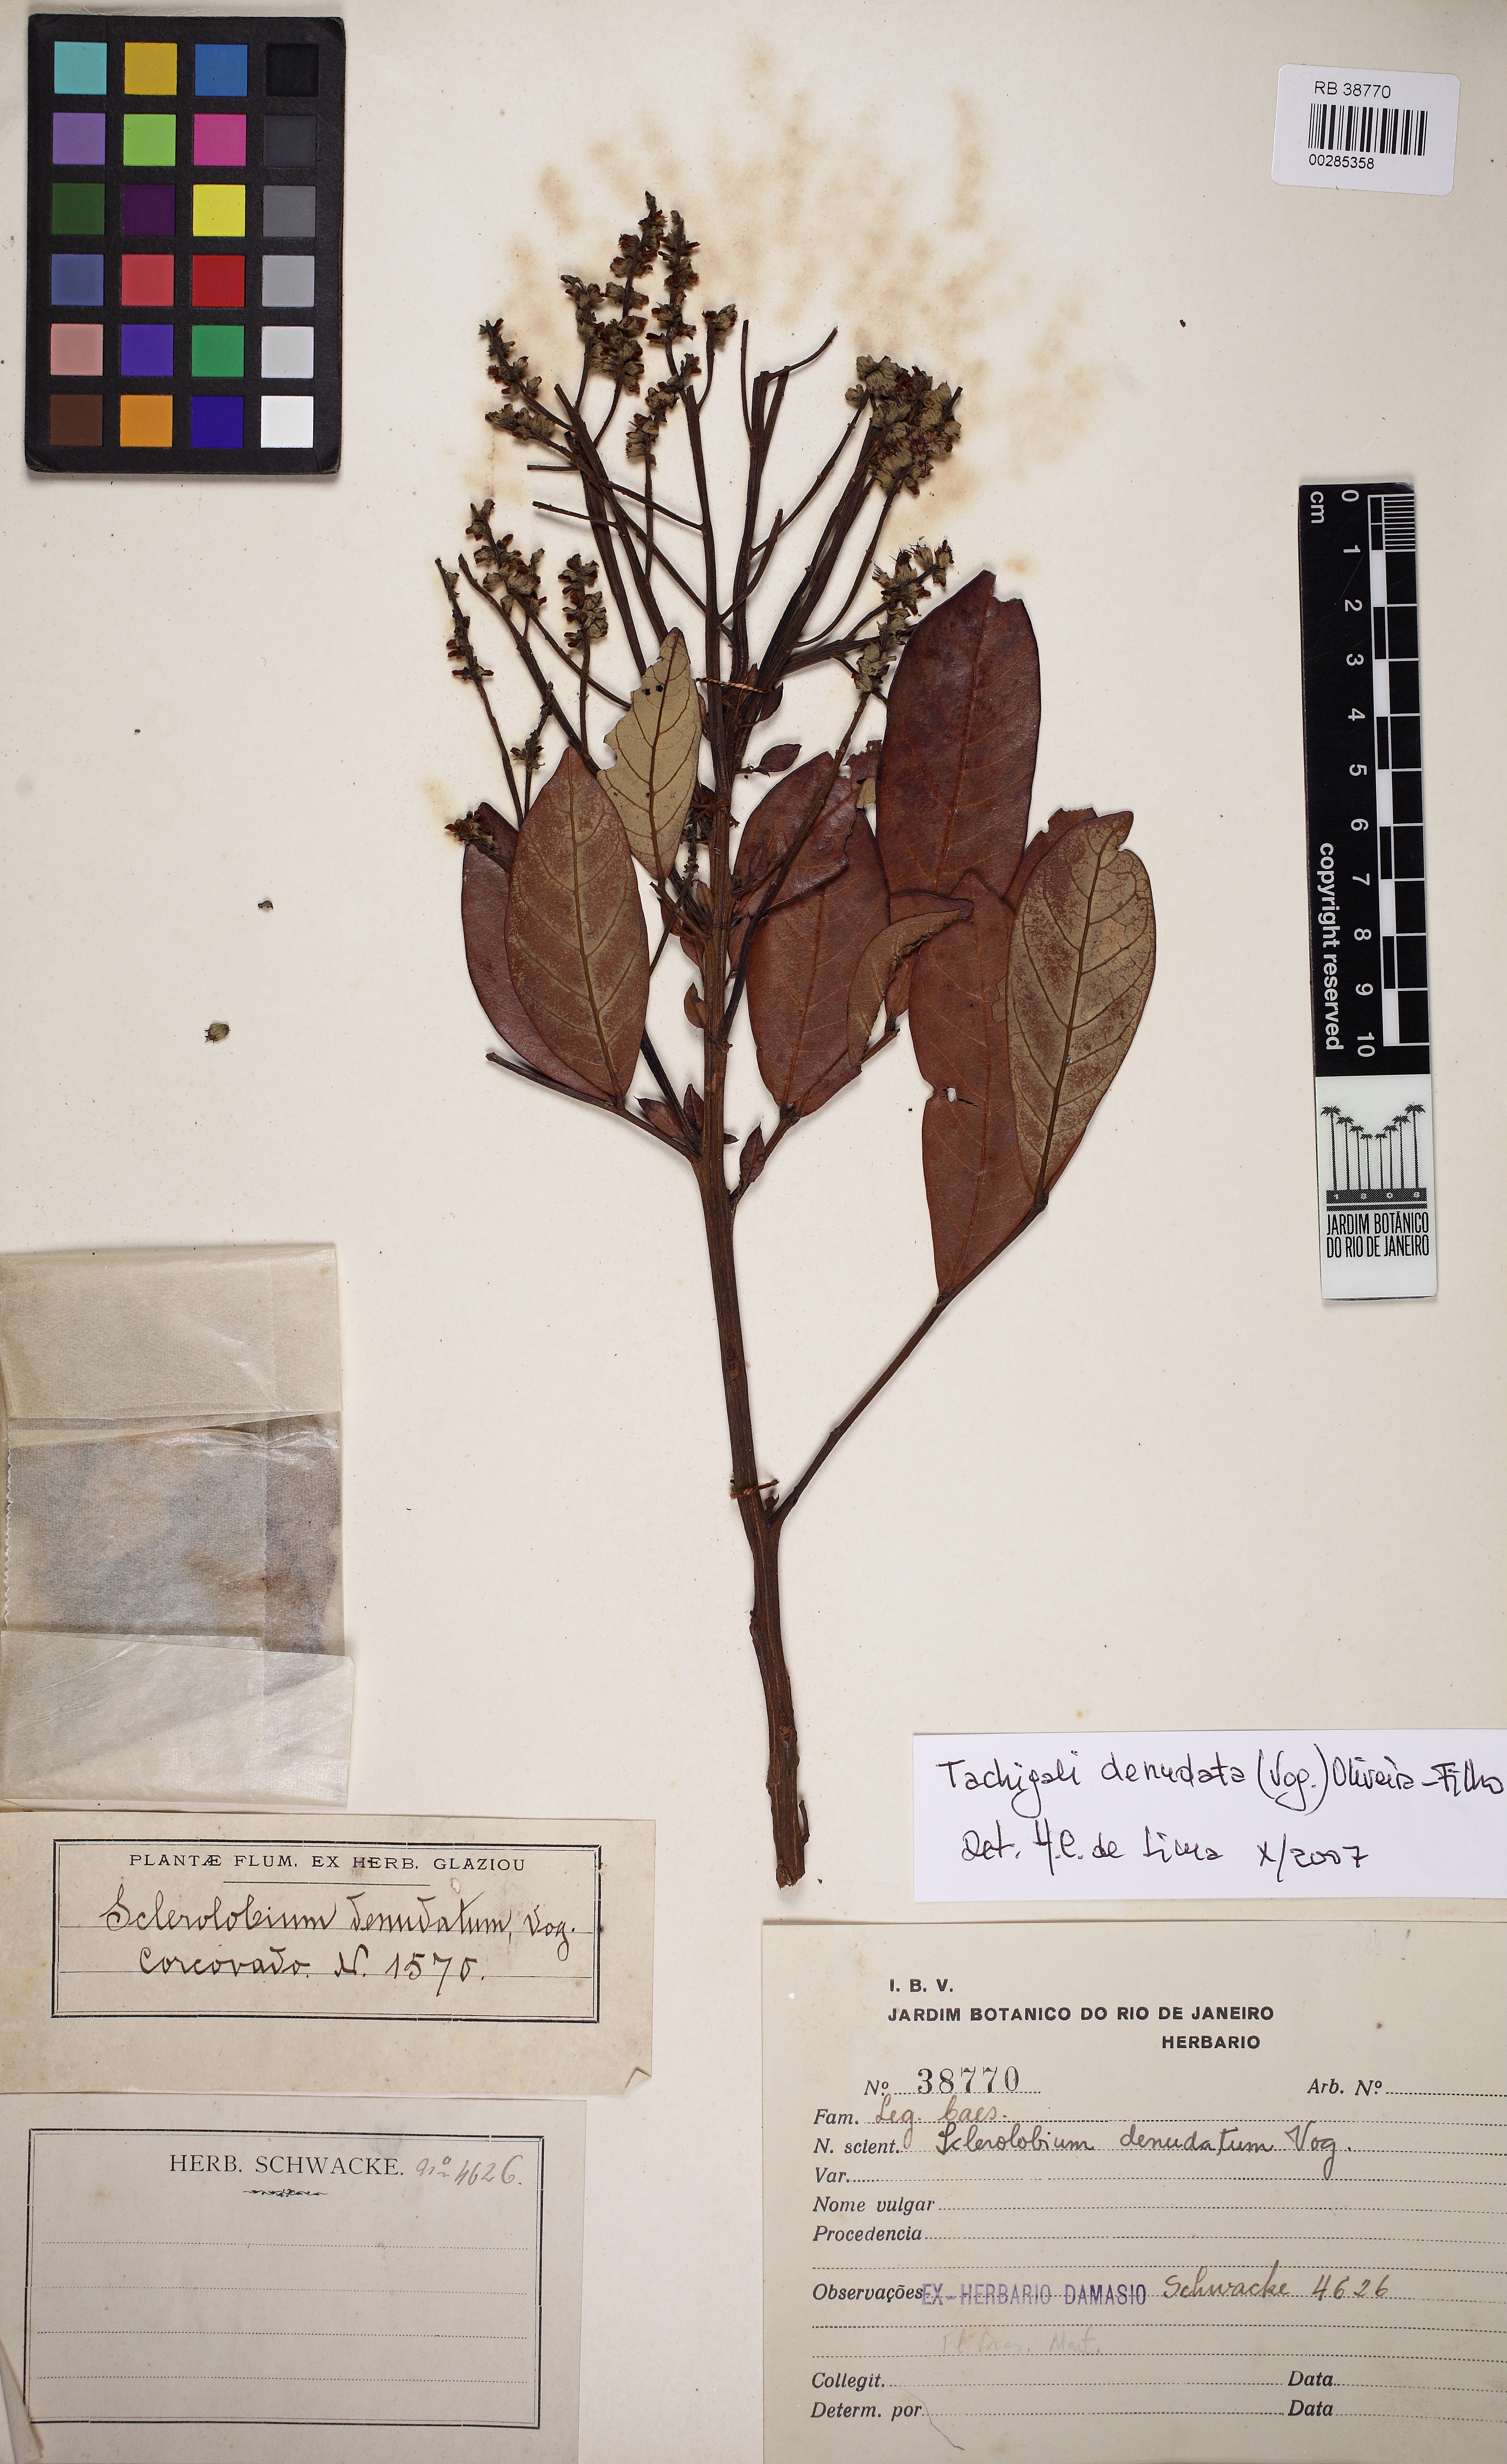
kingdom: Plantae
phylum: Tracheophyta
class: Magnoliopsida
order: Fabales
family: Fabaceae
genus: Tachigali
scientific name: Tachigali denudata
